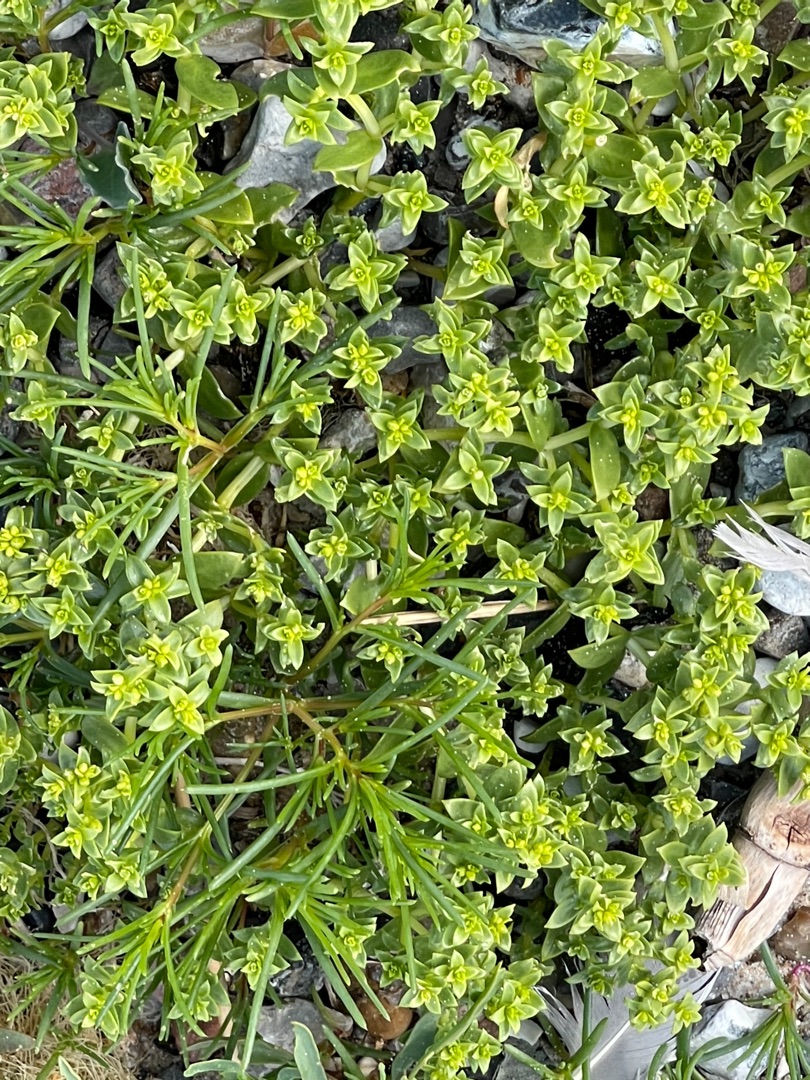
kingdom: Plantae
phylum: Tracheophyta
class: Magnoliopsida
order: Caryophyllales
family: Caryophyllaceae
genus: Honckenya
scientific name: Honckenya peploides
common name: Strandarve
